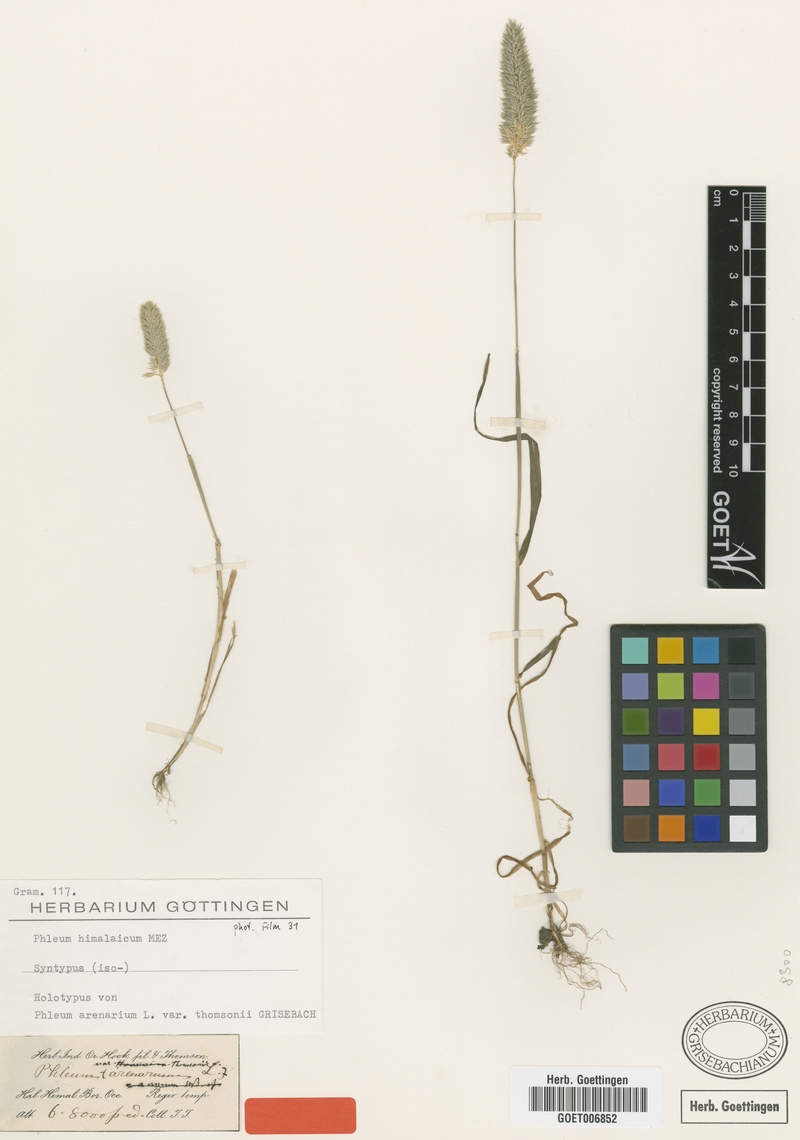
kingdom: Plantae
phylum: Tracheophyta
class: Liliopsida
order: Poales
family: Poaceae
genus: Phleum
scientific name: Phleum himalaicum
